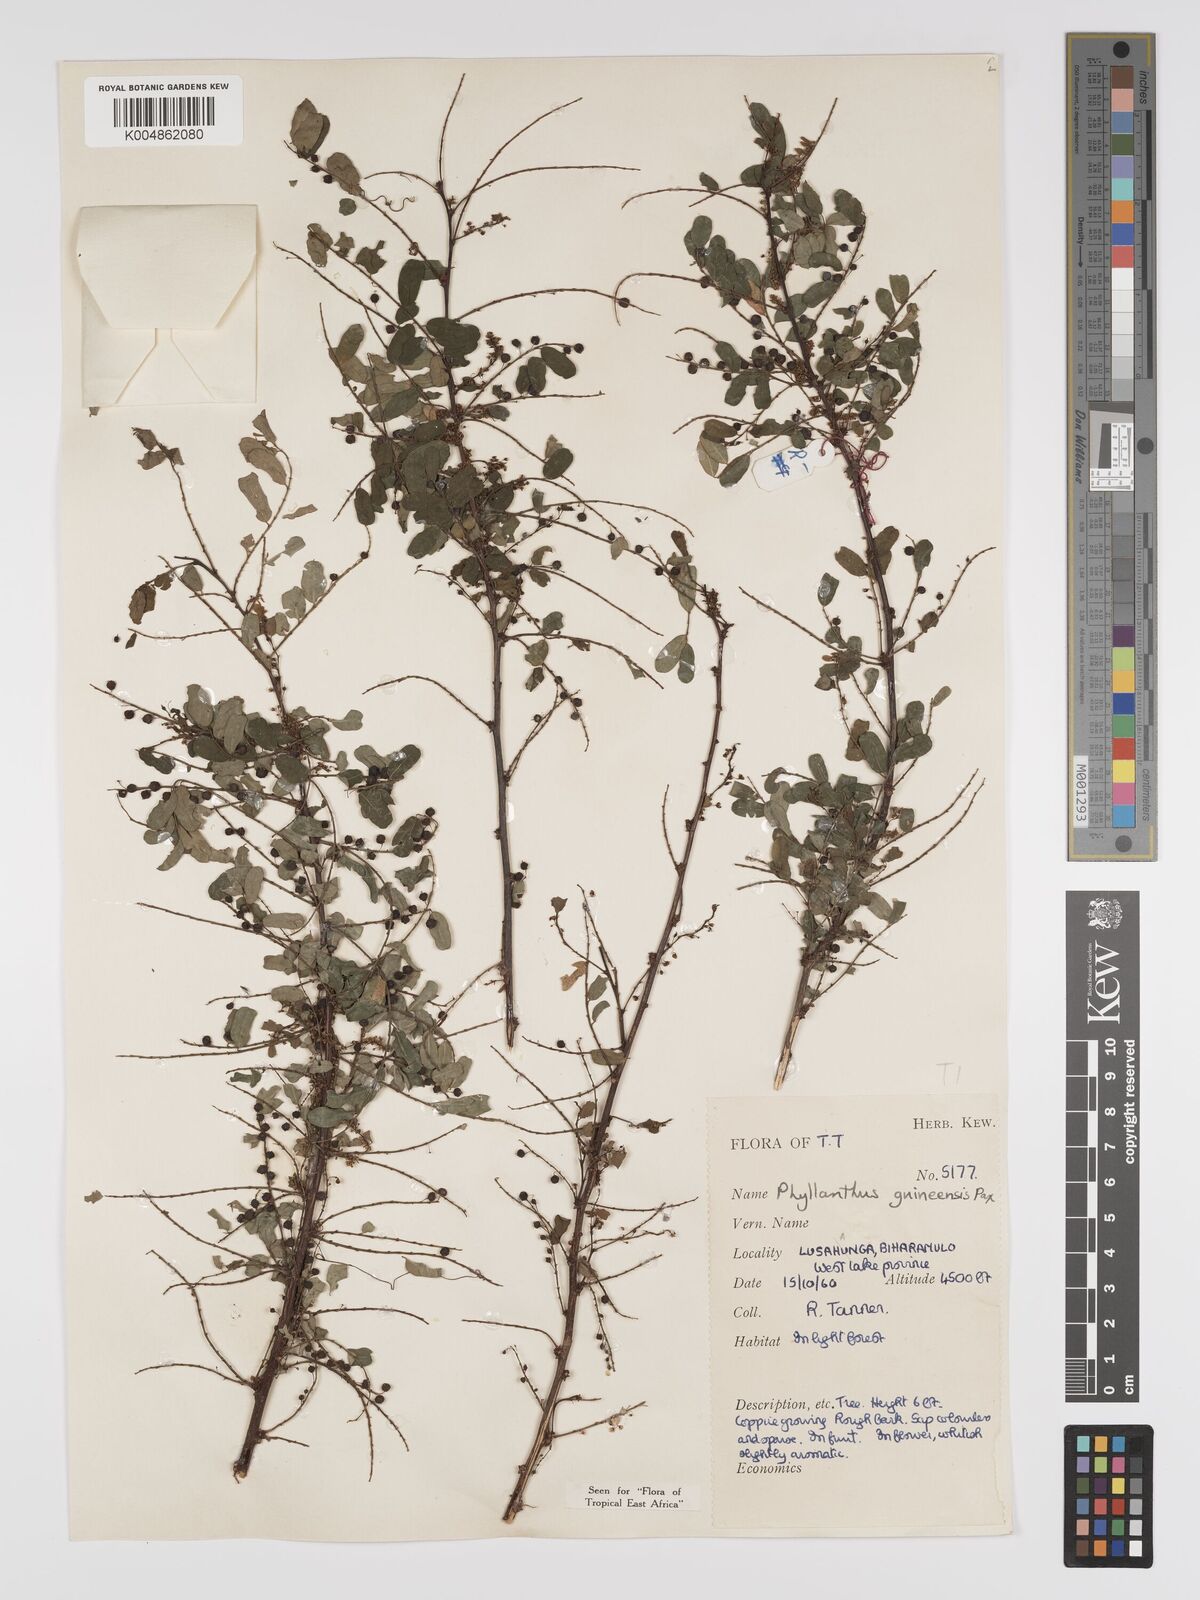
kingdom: Plantae
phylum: Tracheophyta
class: Magnoliopsida
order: Malpighiales
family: Phyllanthaceae
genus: Phyllanthus
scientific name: Phyllanthus ovalifolius
